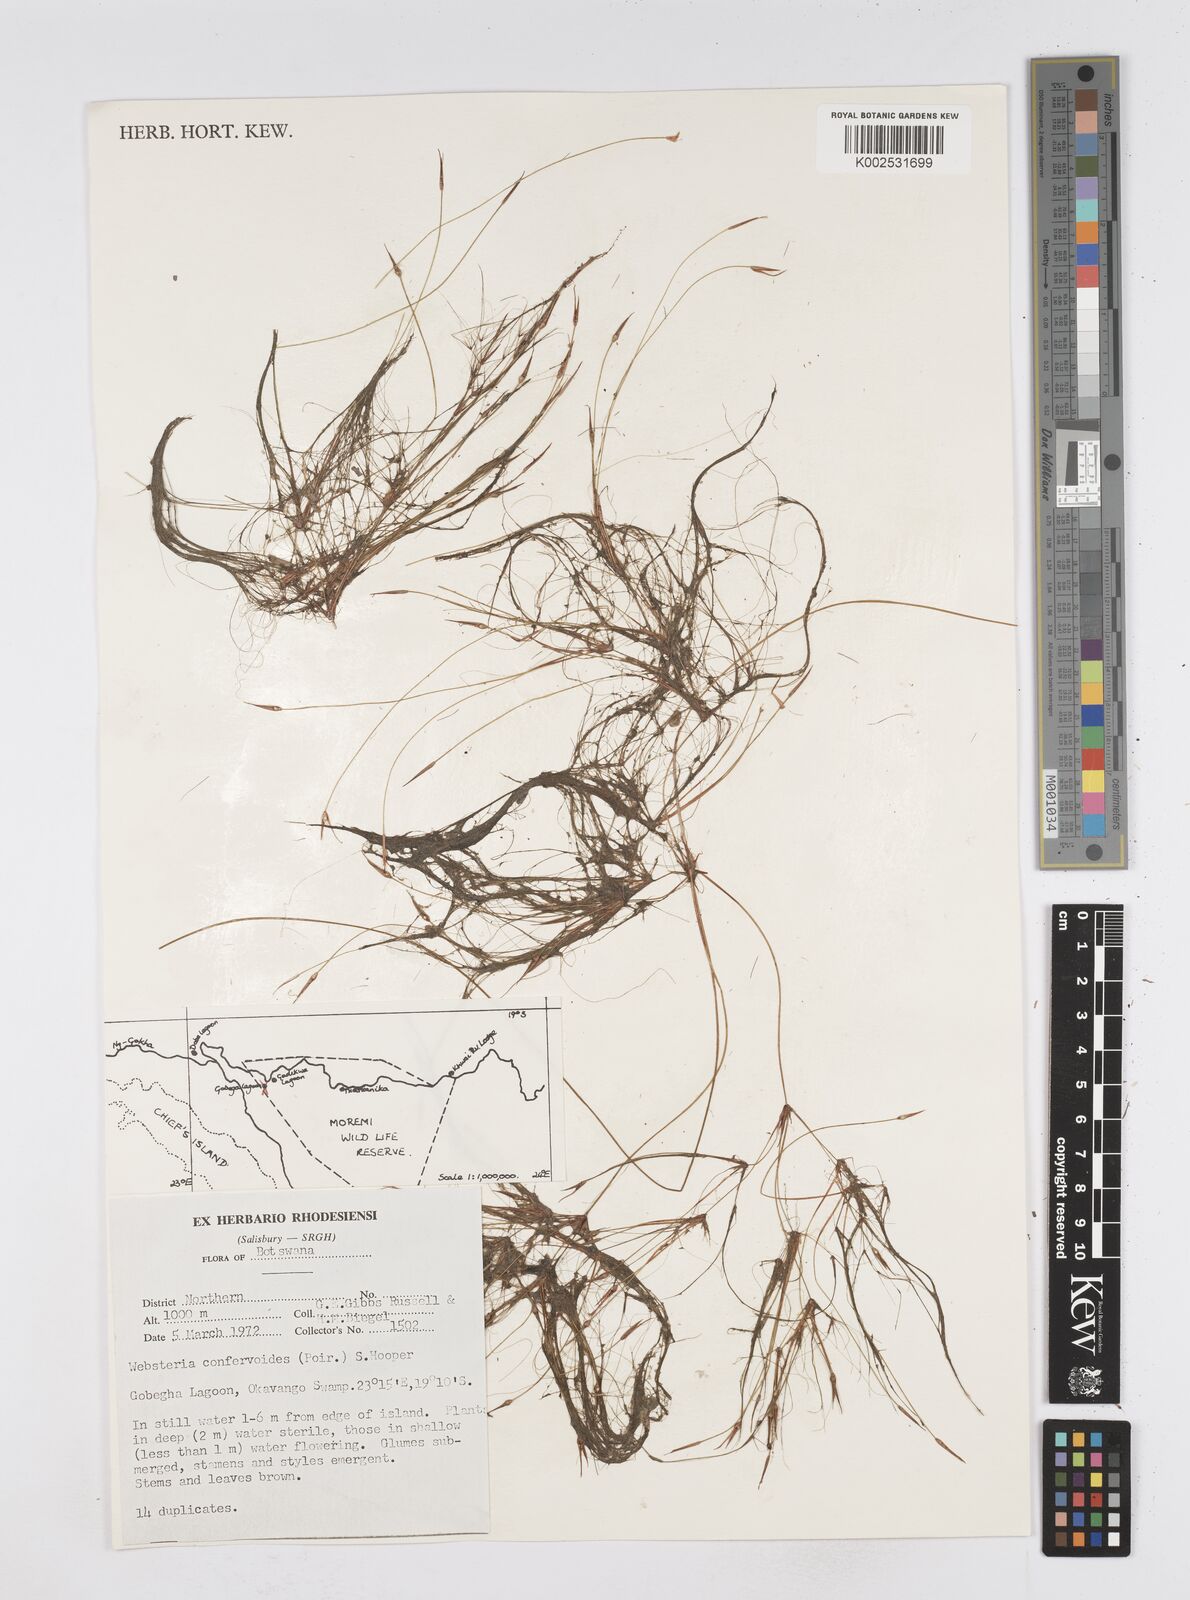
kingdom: Plantae
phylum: Tracheophyta
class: Liliopsida
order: Poales
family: Cyperaceae
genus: Eleocharis
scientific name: Eleocharis confervoides
